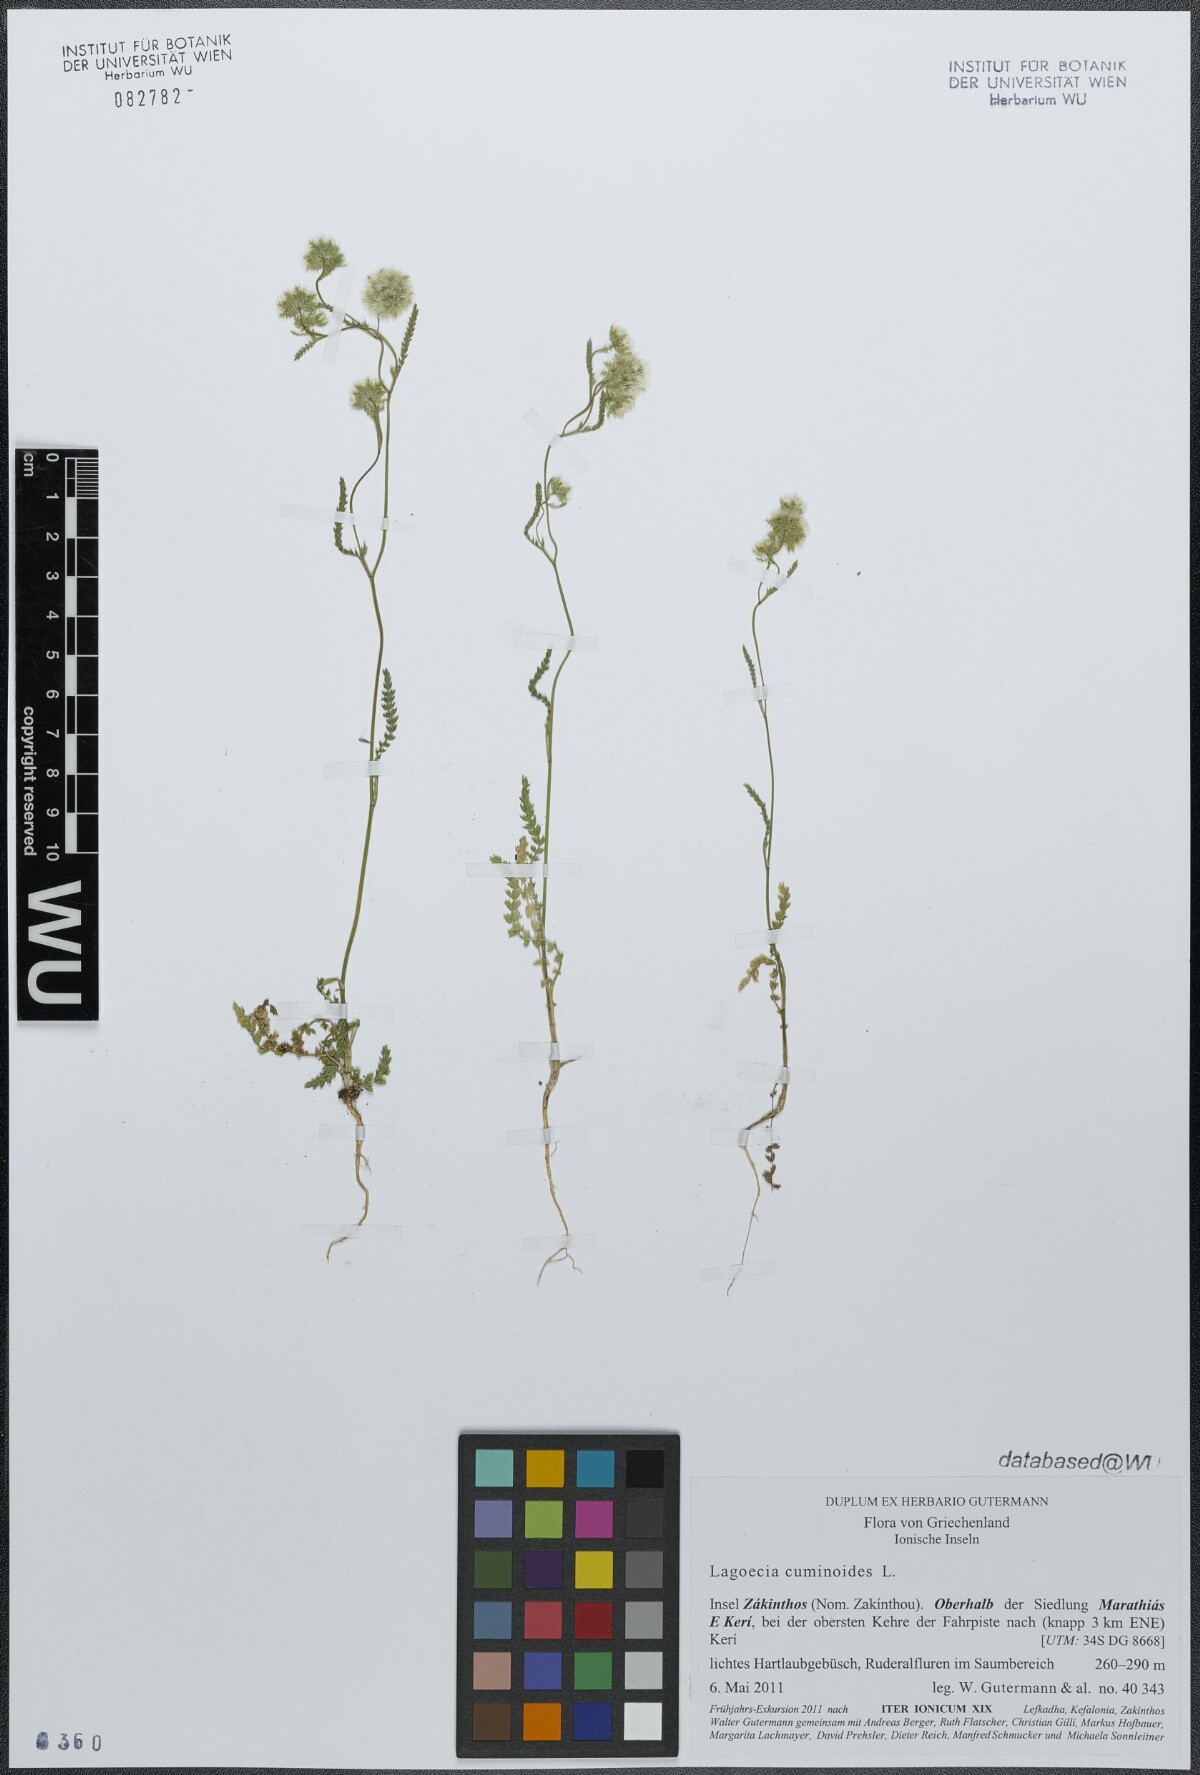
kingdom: Plantae
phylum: Tracheophyta
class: Magnoliopsida
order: Apiales
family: Apiaceae
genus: Lagoecia
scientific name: Lagoecia cuminoides
